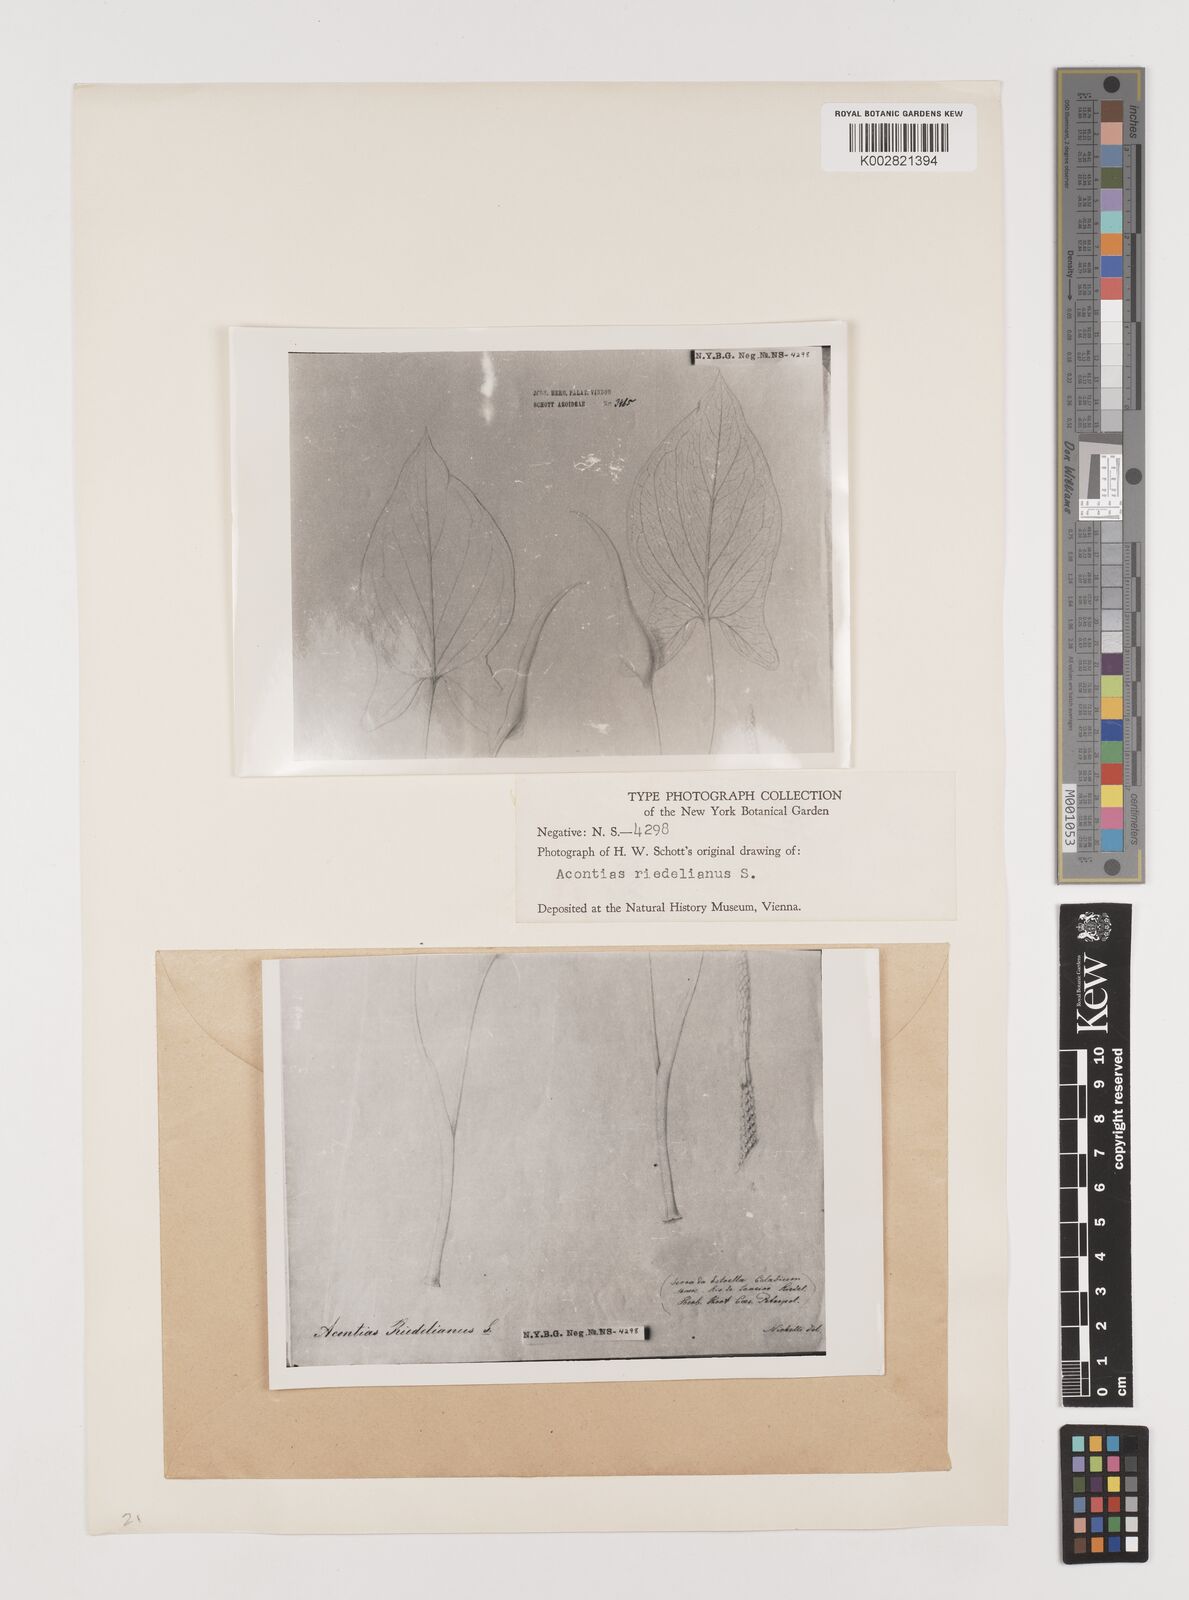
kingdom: Plantae
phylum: Tracheophyta
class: Liliopsida
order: Alismatales
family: Araceae
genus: Xanthosoma
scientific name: Xanthosoma riedelianum
